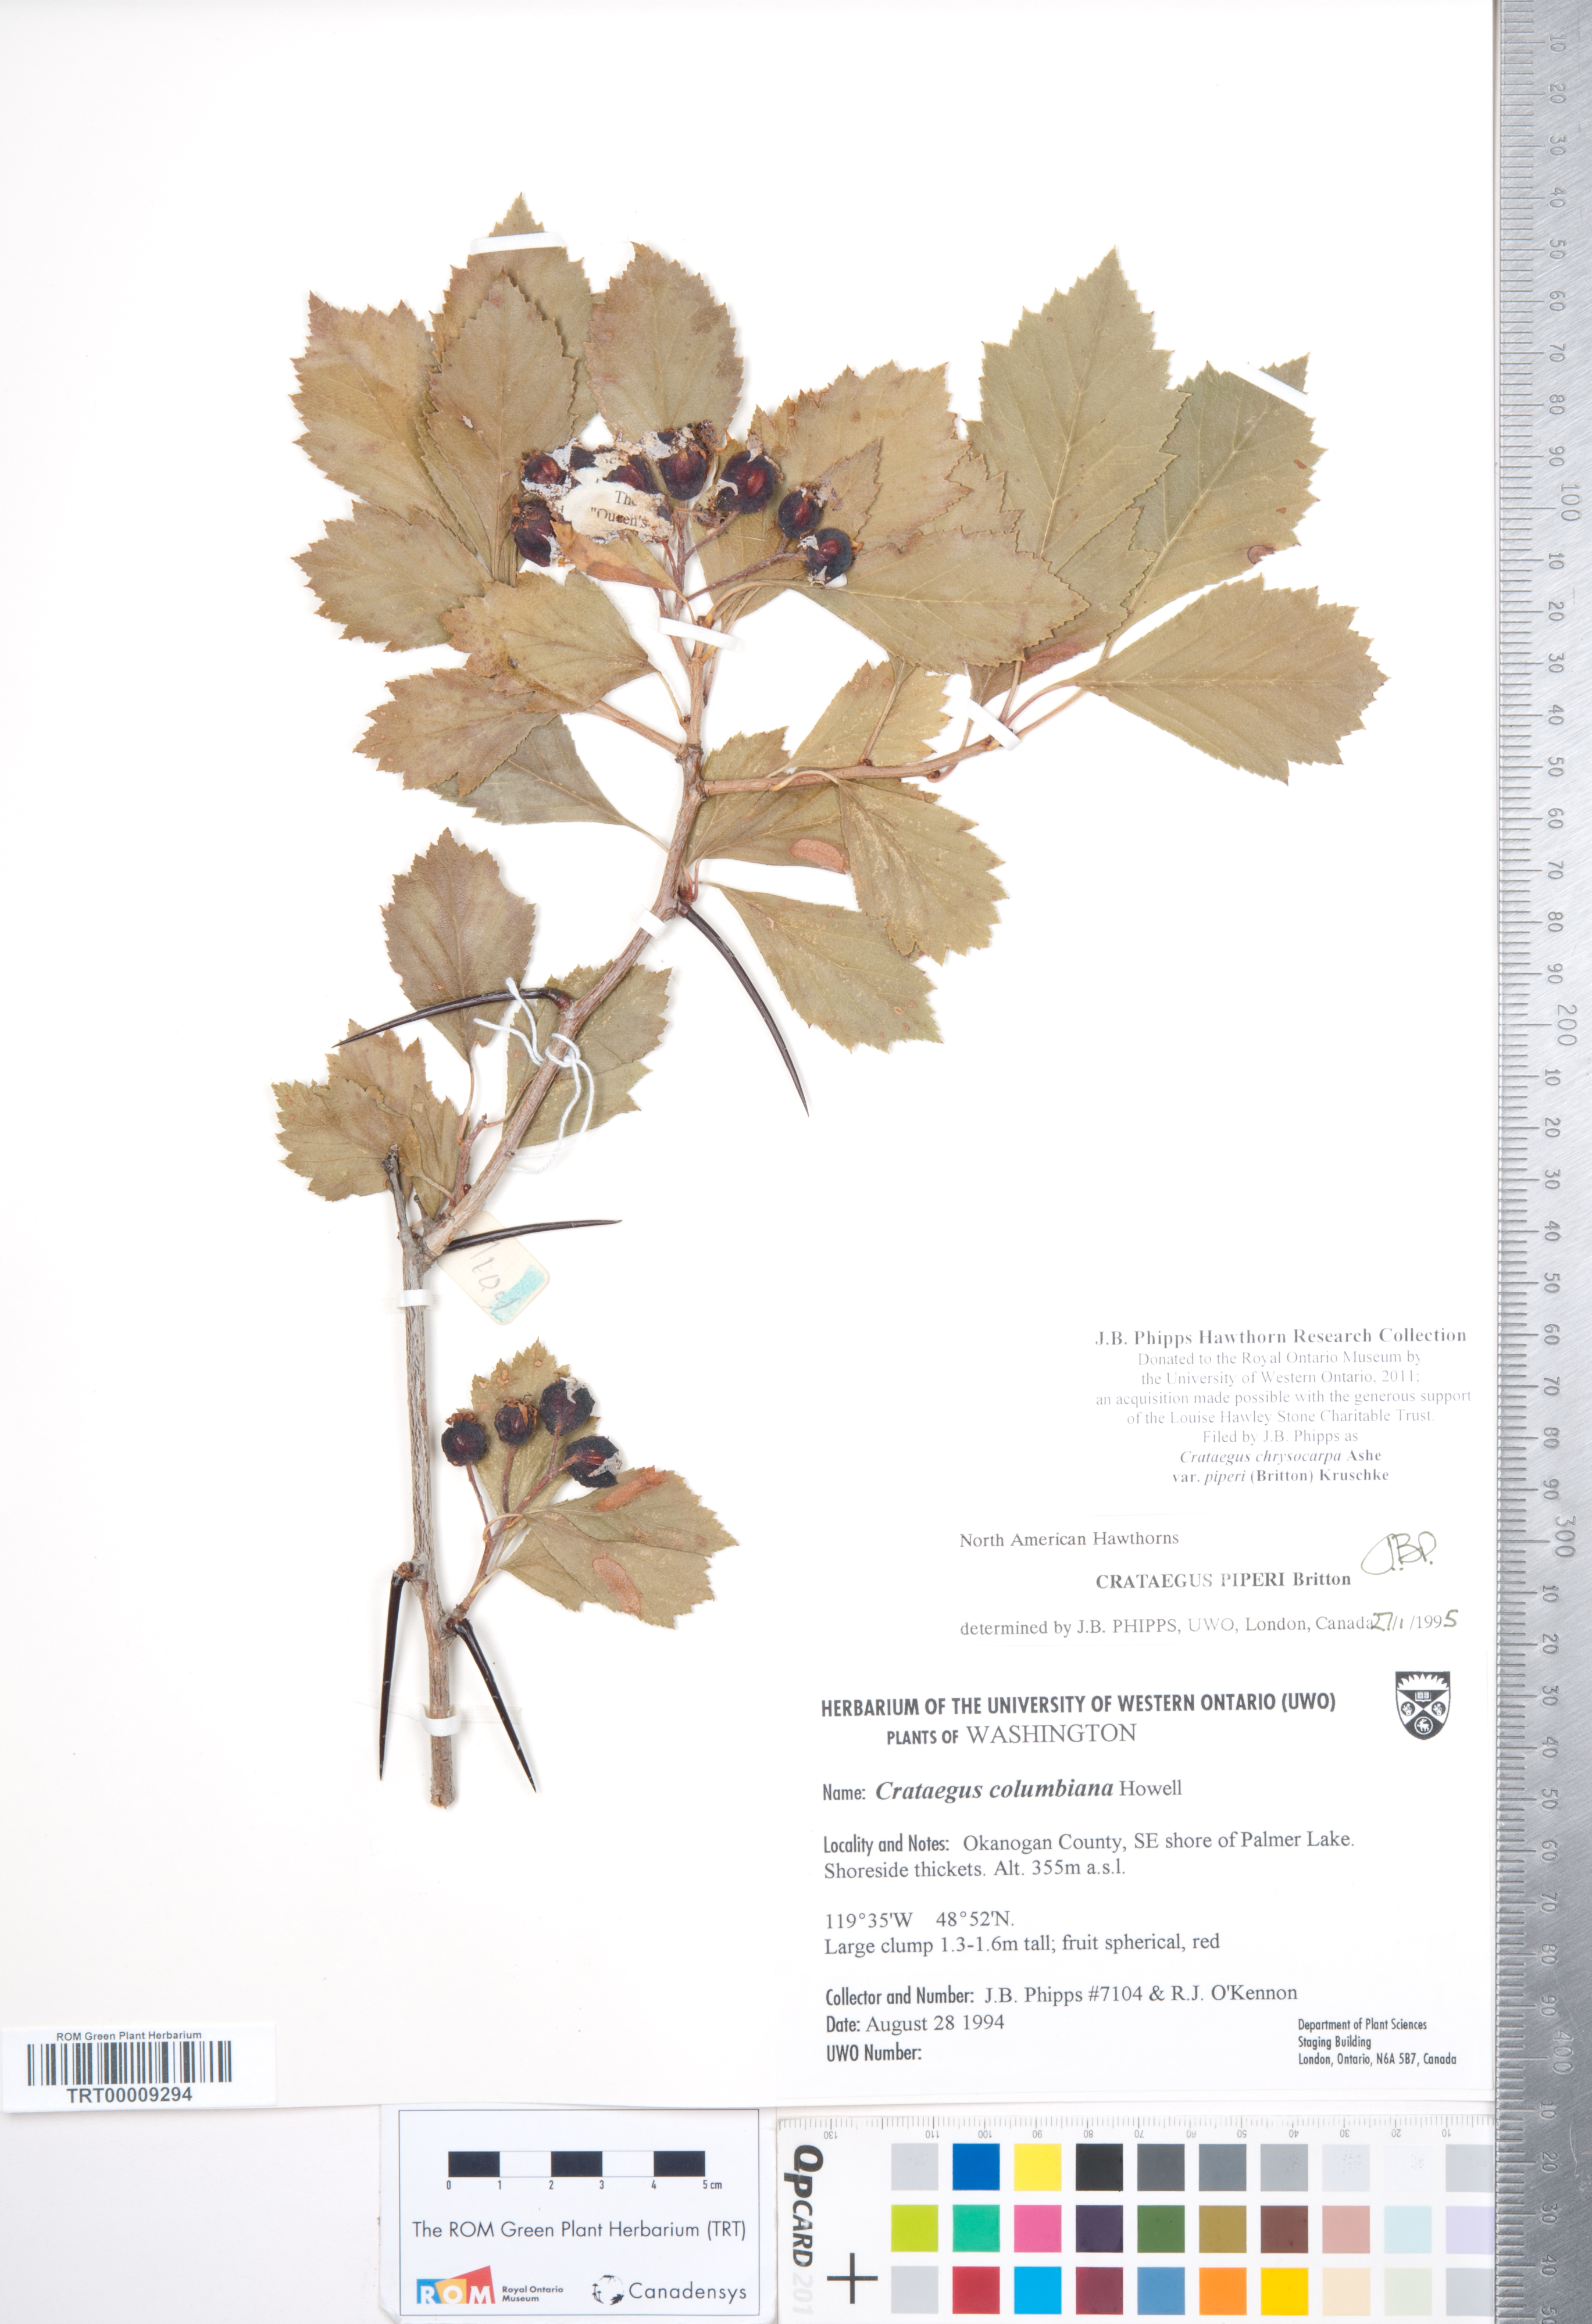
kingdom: Plantae
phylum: Tracheophyta
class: Magnoliopsida
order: Rosales
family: Rosaceae
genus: Crataegus
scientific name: Crataegus piperi
